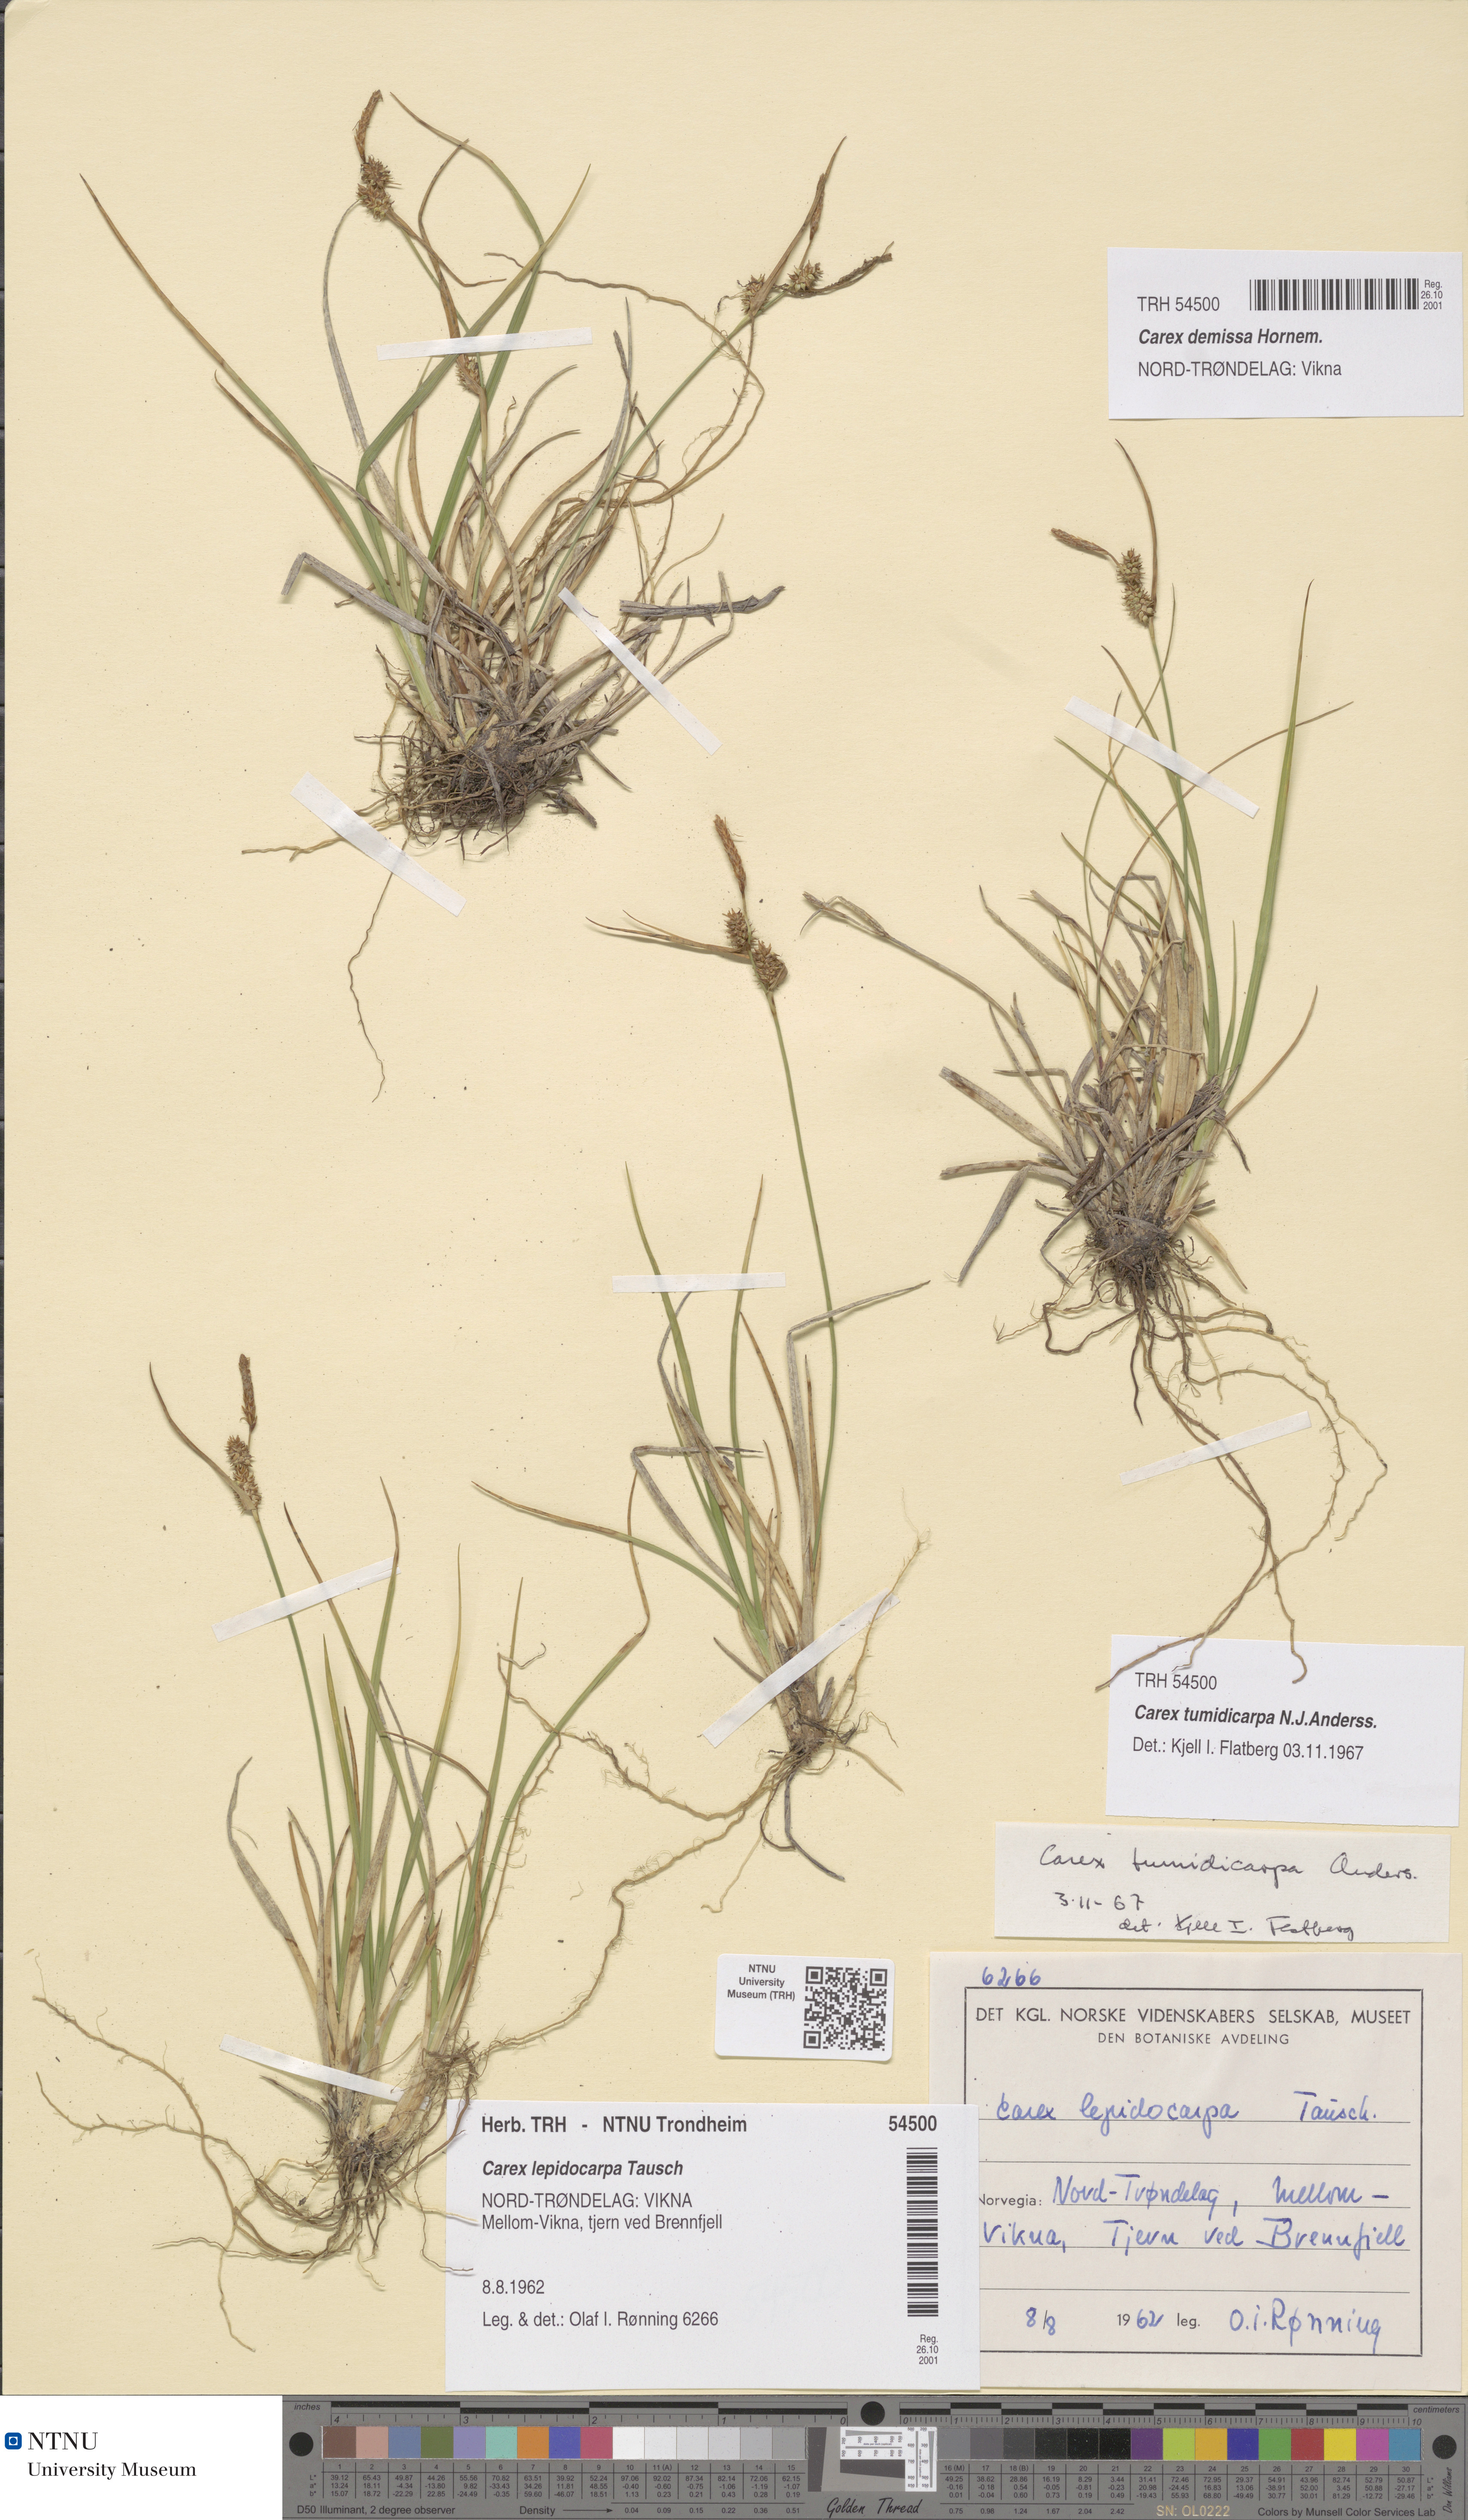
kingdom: Plantae
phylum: Tracheophyta
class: Liliopsida
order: Poales
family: Cyperaceae
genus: Carex
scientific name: Carex demissa
